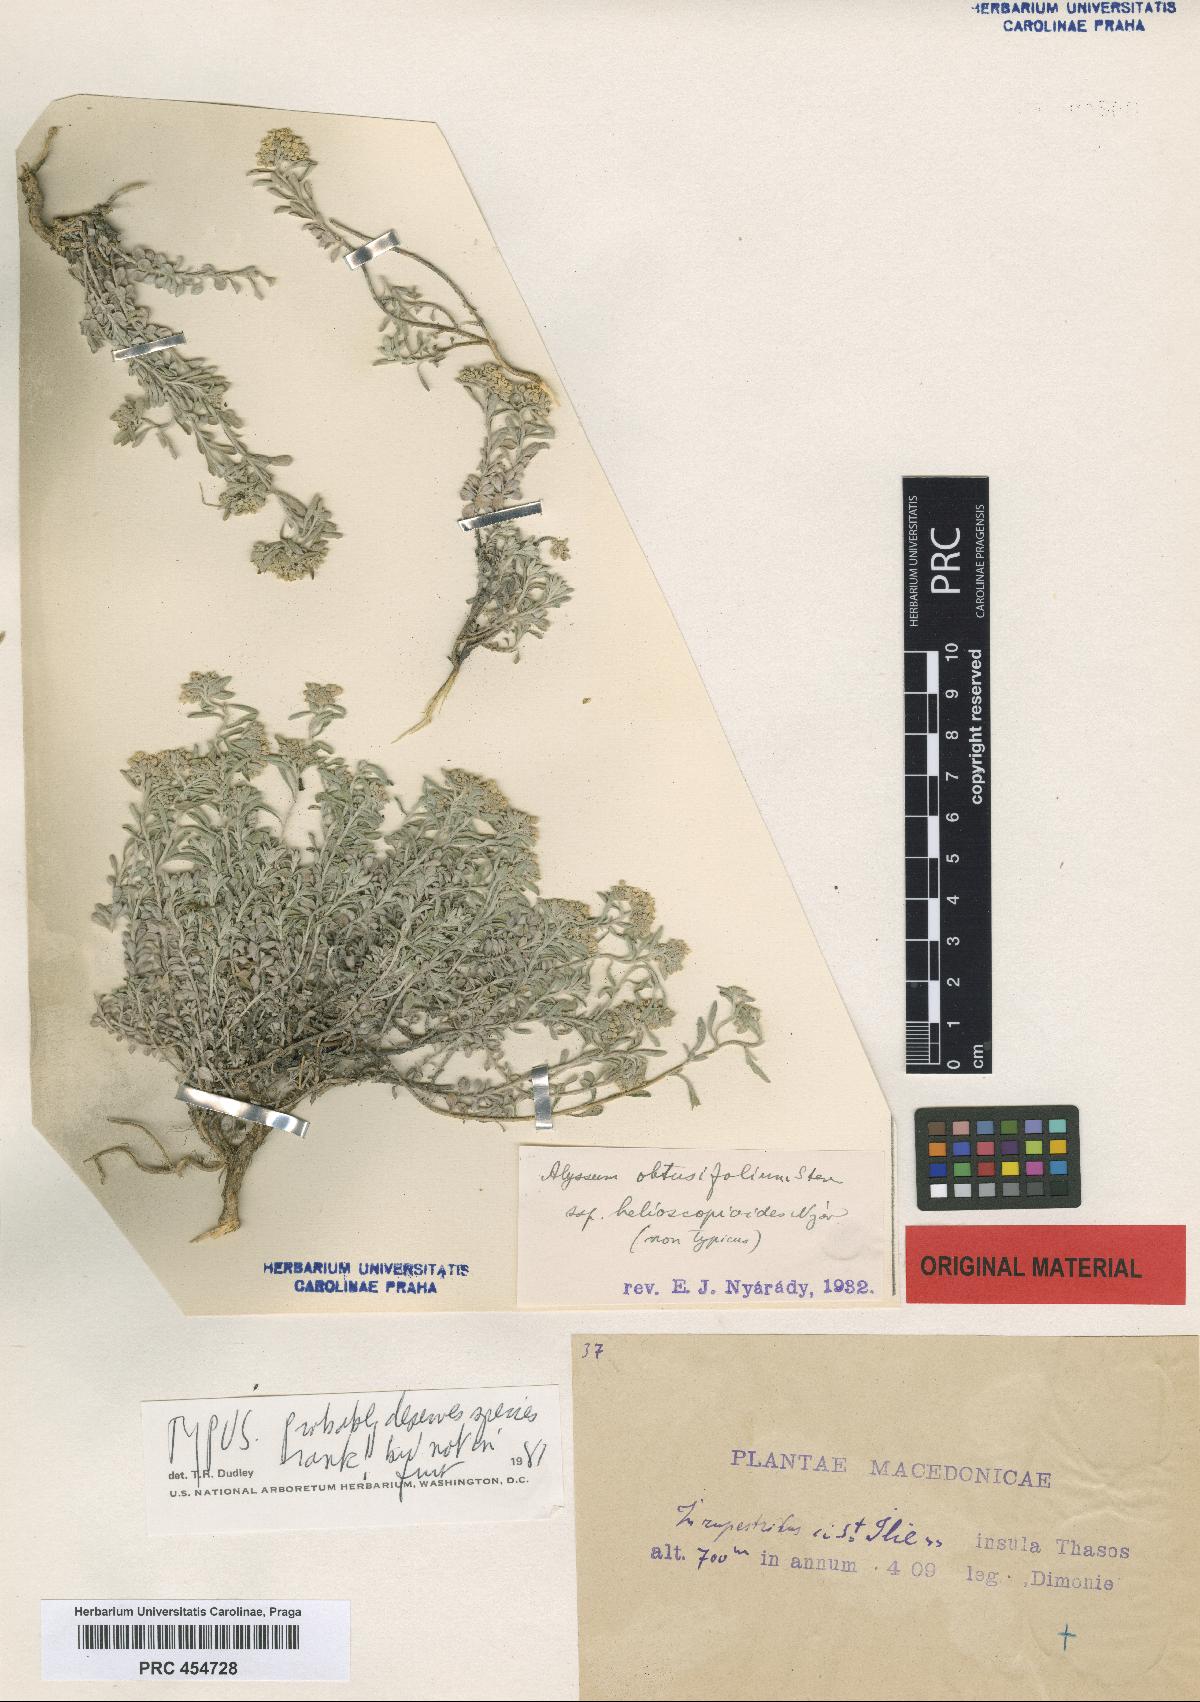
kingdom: Plantae
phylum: Tracheophyta
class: Magnoliopsida
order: Brassicales
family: Brassicaceae
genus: Odontarrhena
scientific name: Odontarrhena obtusifolia
